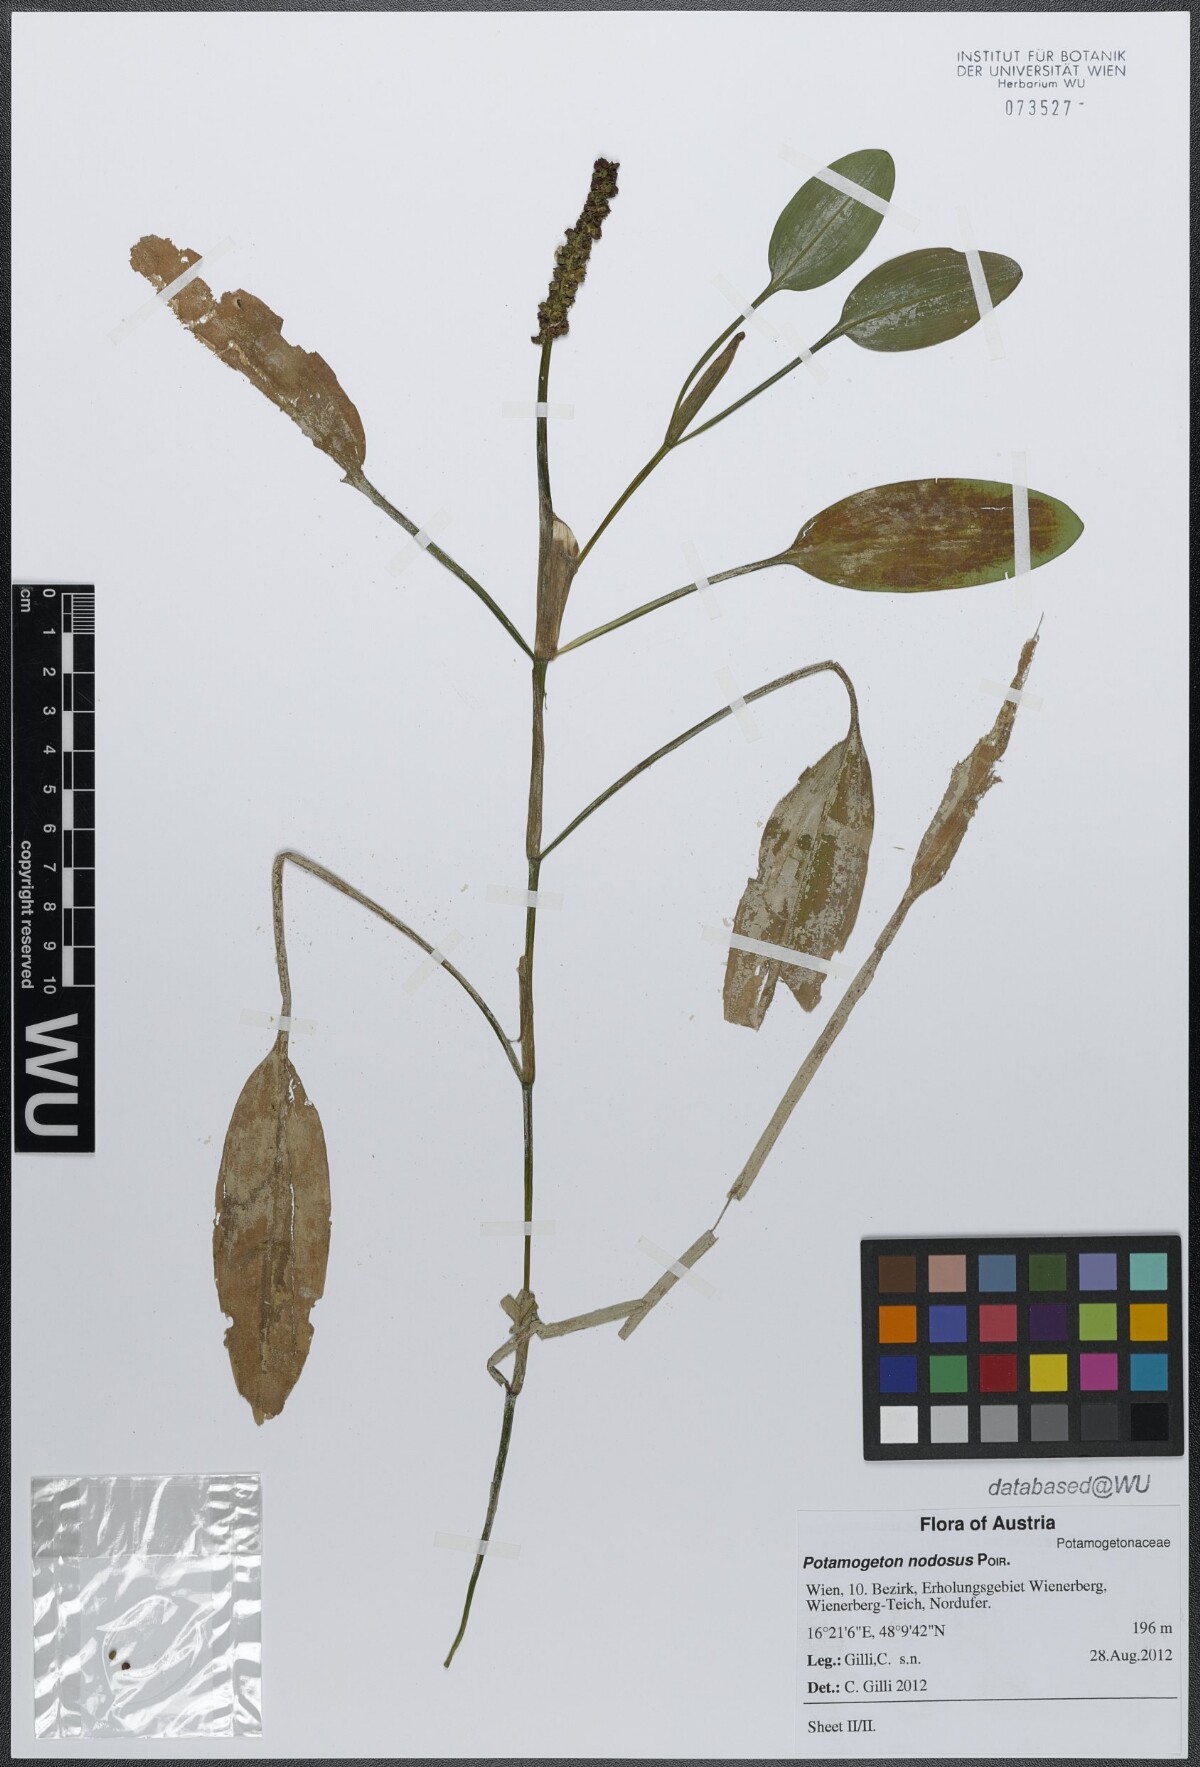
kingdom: Plantae
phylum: Tracheophyta
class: Liliopsida
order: Alismatales
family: Potamogetonaceae
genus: Potamogeton
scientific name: Potamogeton nodosus
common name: Loddon pondweed
